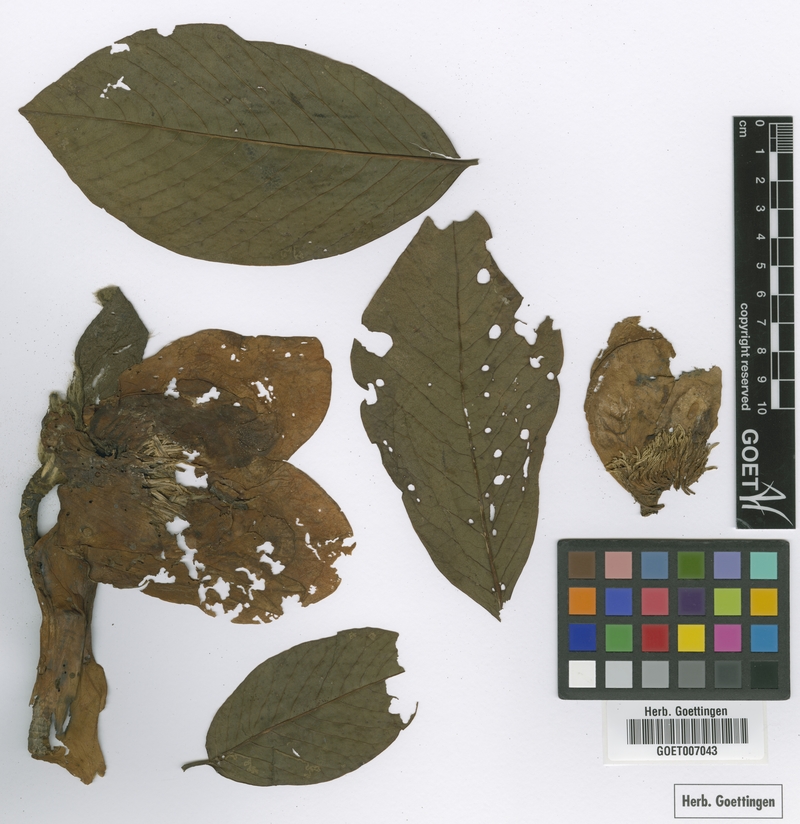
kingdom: Plantae
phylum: Tracheophyta
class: Magnoliopsida
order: Magnoliales
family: Magnoliaceae
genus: Magnolia
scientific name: Magnolia campbellii
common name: Campbell's magnolia
